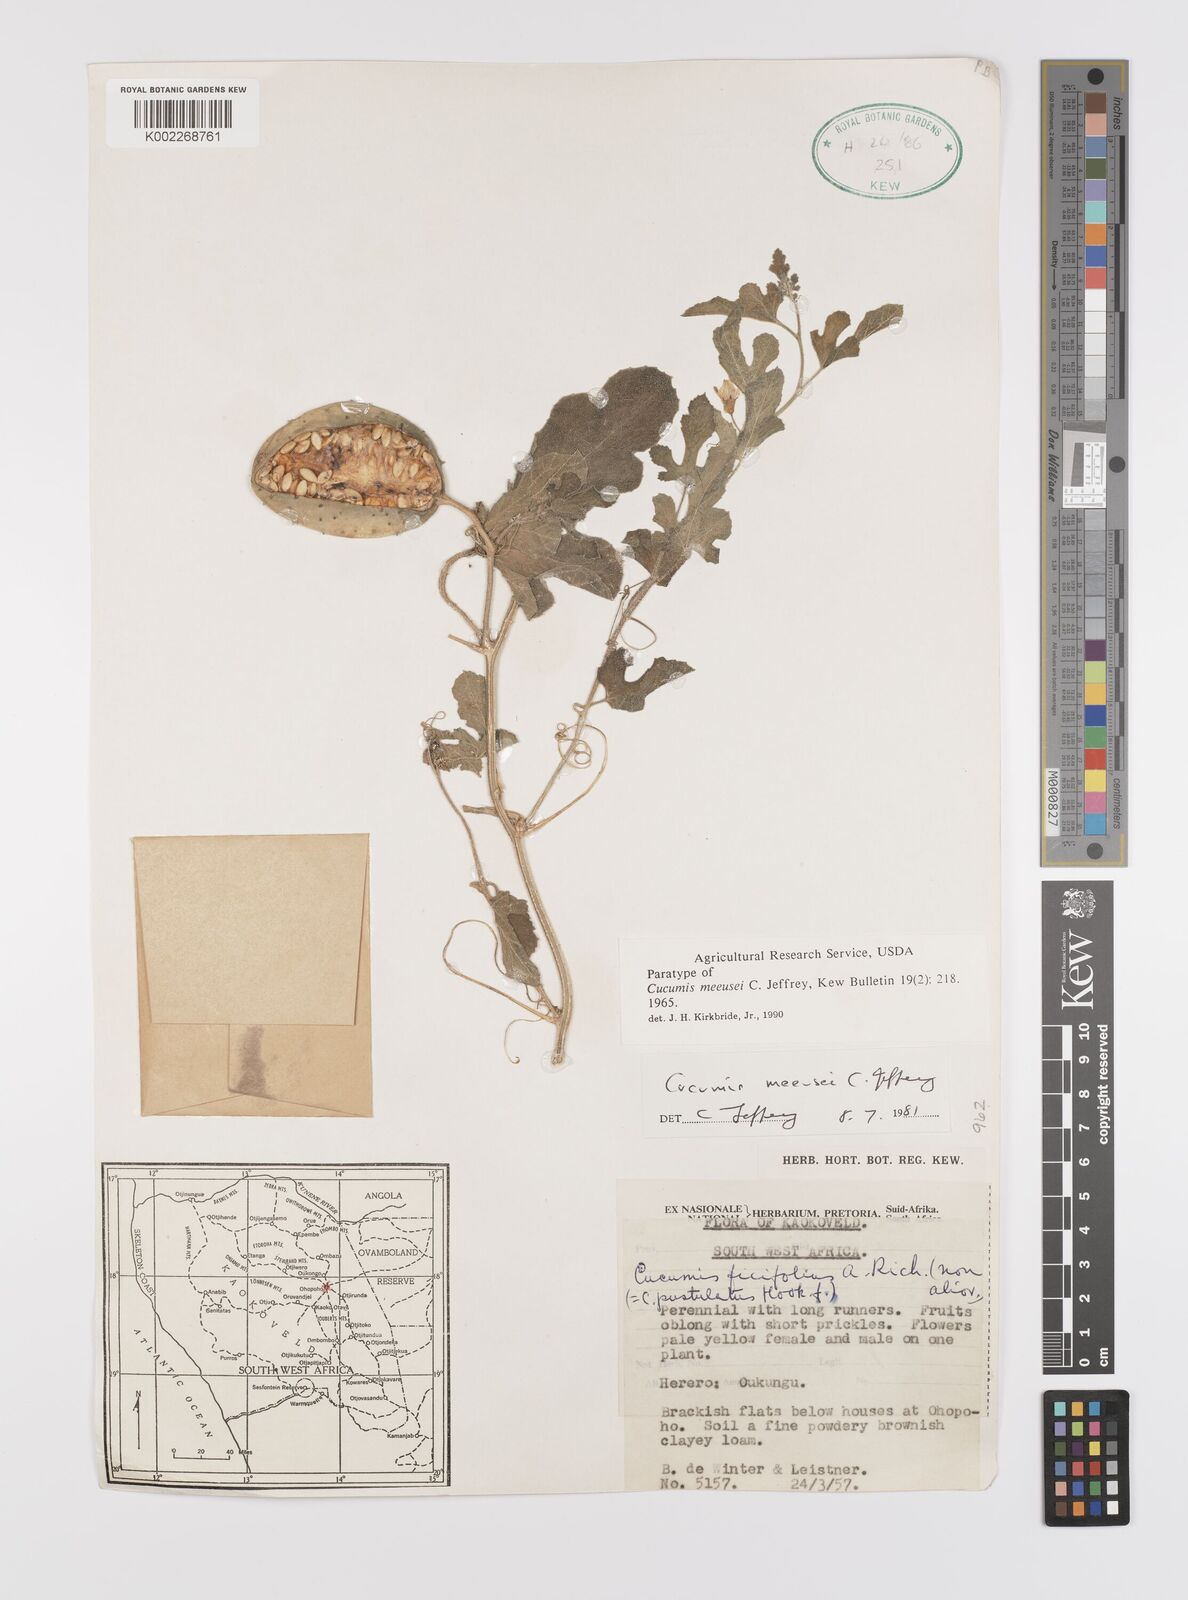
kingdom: Plantae
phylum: Tracheophyta
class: Magnoliopsida
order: Cucurbitales
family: Cucurbitaceae
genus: Cucumis
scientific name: Cucumis meeusei
